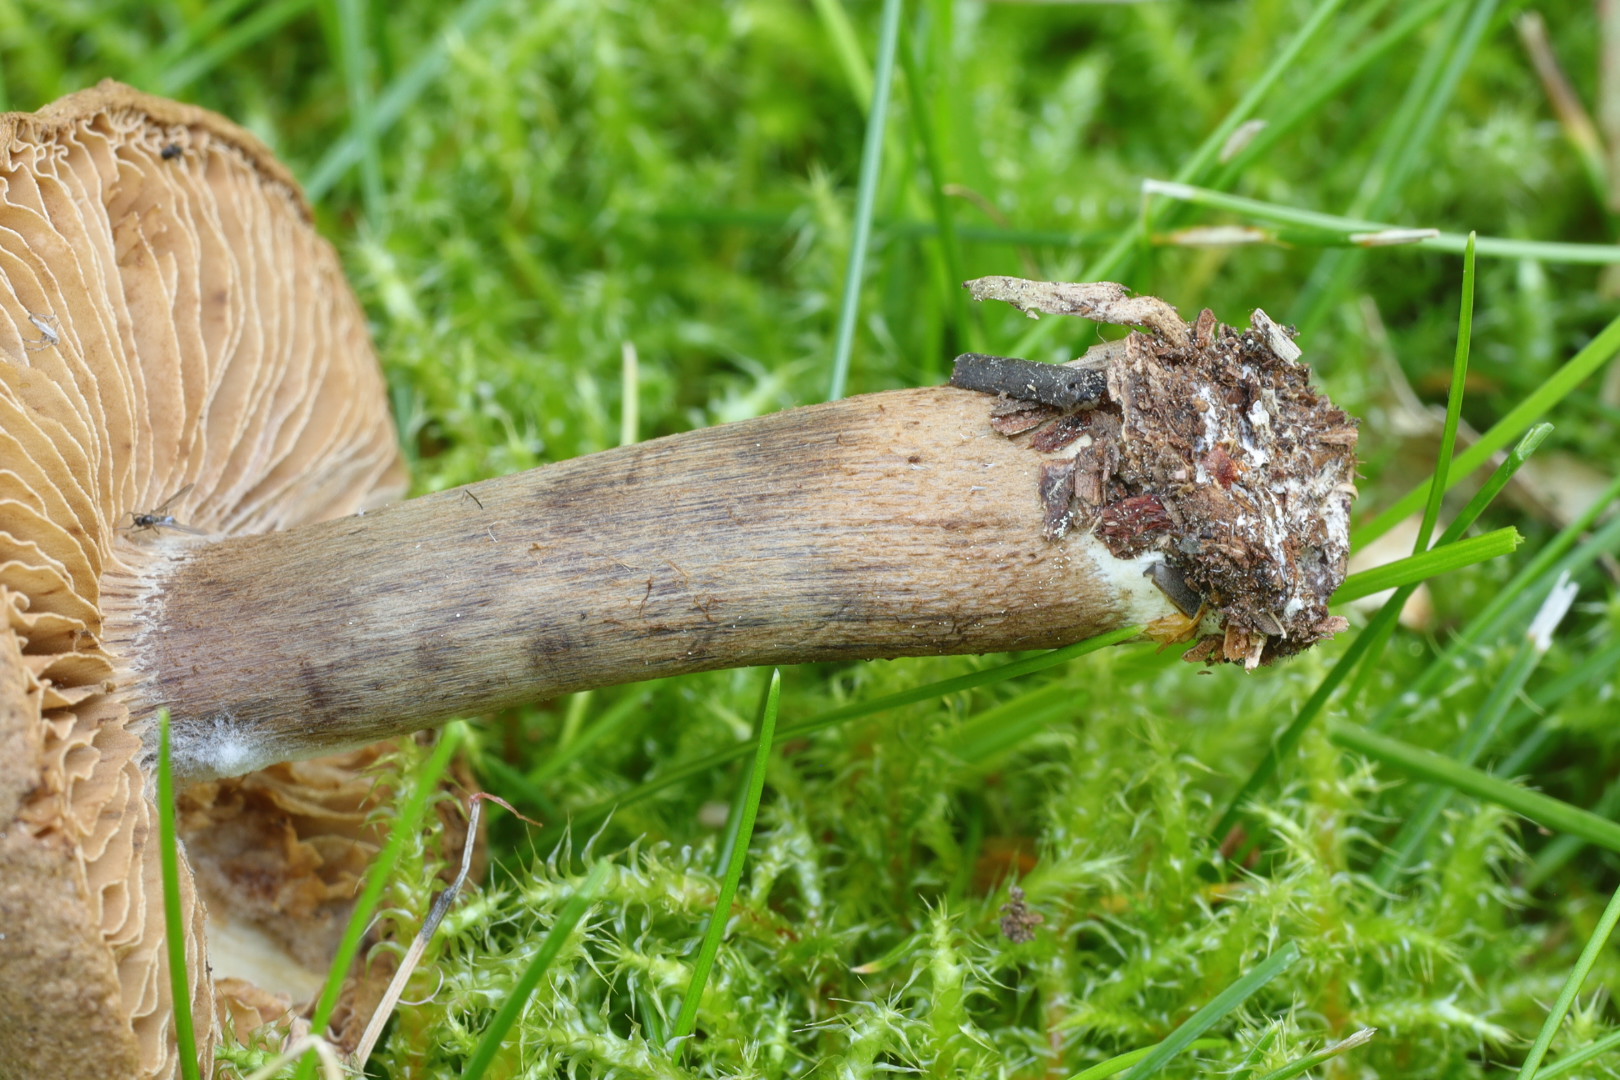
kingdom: Fungi
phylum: Basidiomycota
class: Agaricomycetes
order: Agaricales
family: Inocybaceae
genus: Inocybe
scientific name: Inocybe subcarpta
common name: plantage-trævlhat
